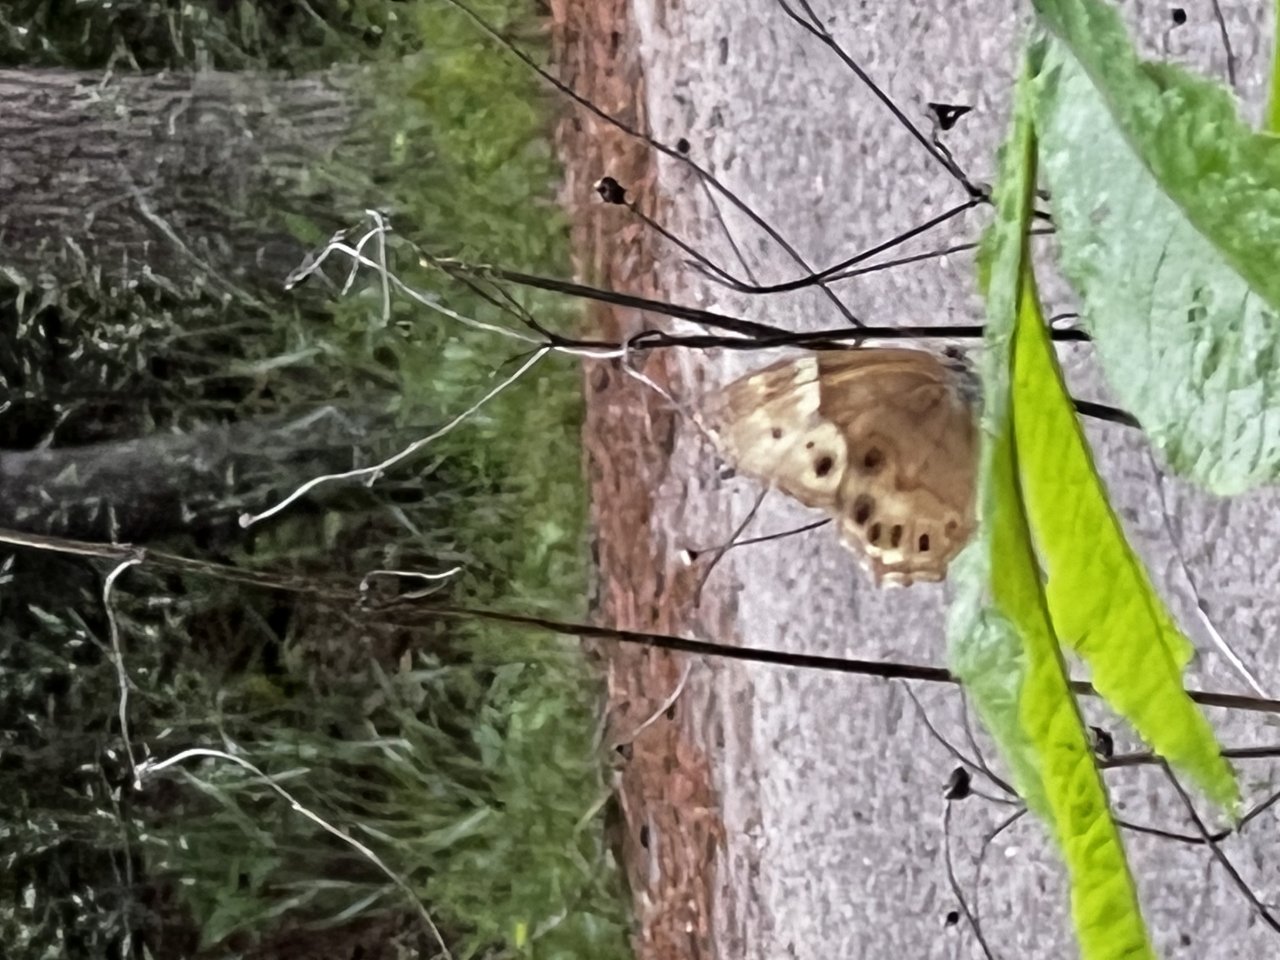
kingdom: Animalia
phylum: Arthropoda
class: Insecta
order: Lepidoptera
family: Nymphalidae
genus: Enodia
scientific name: Enodia portlandia
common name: Southern Pearly Eye
